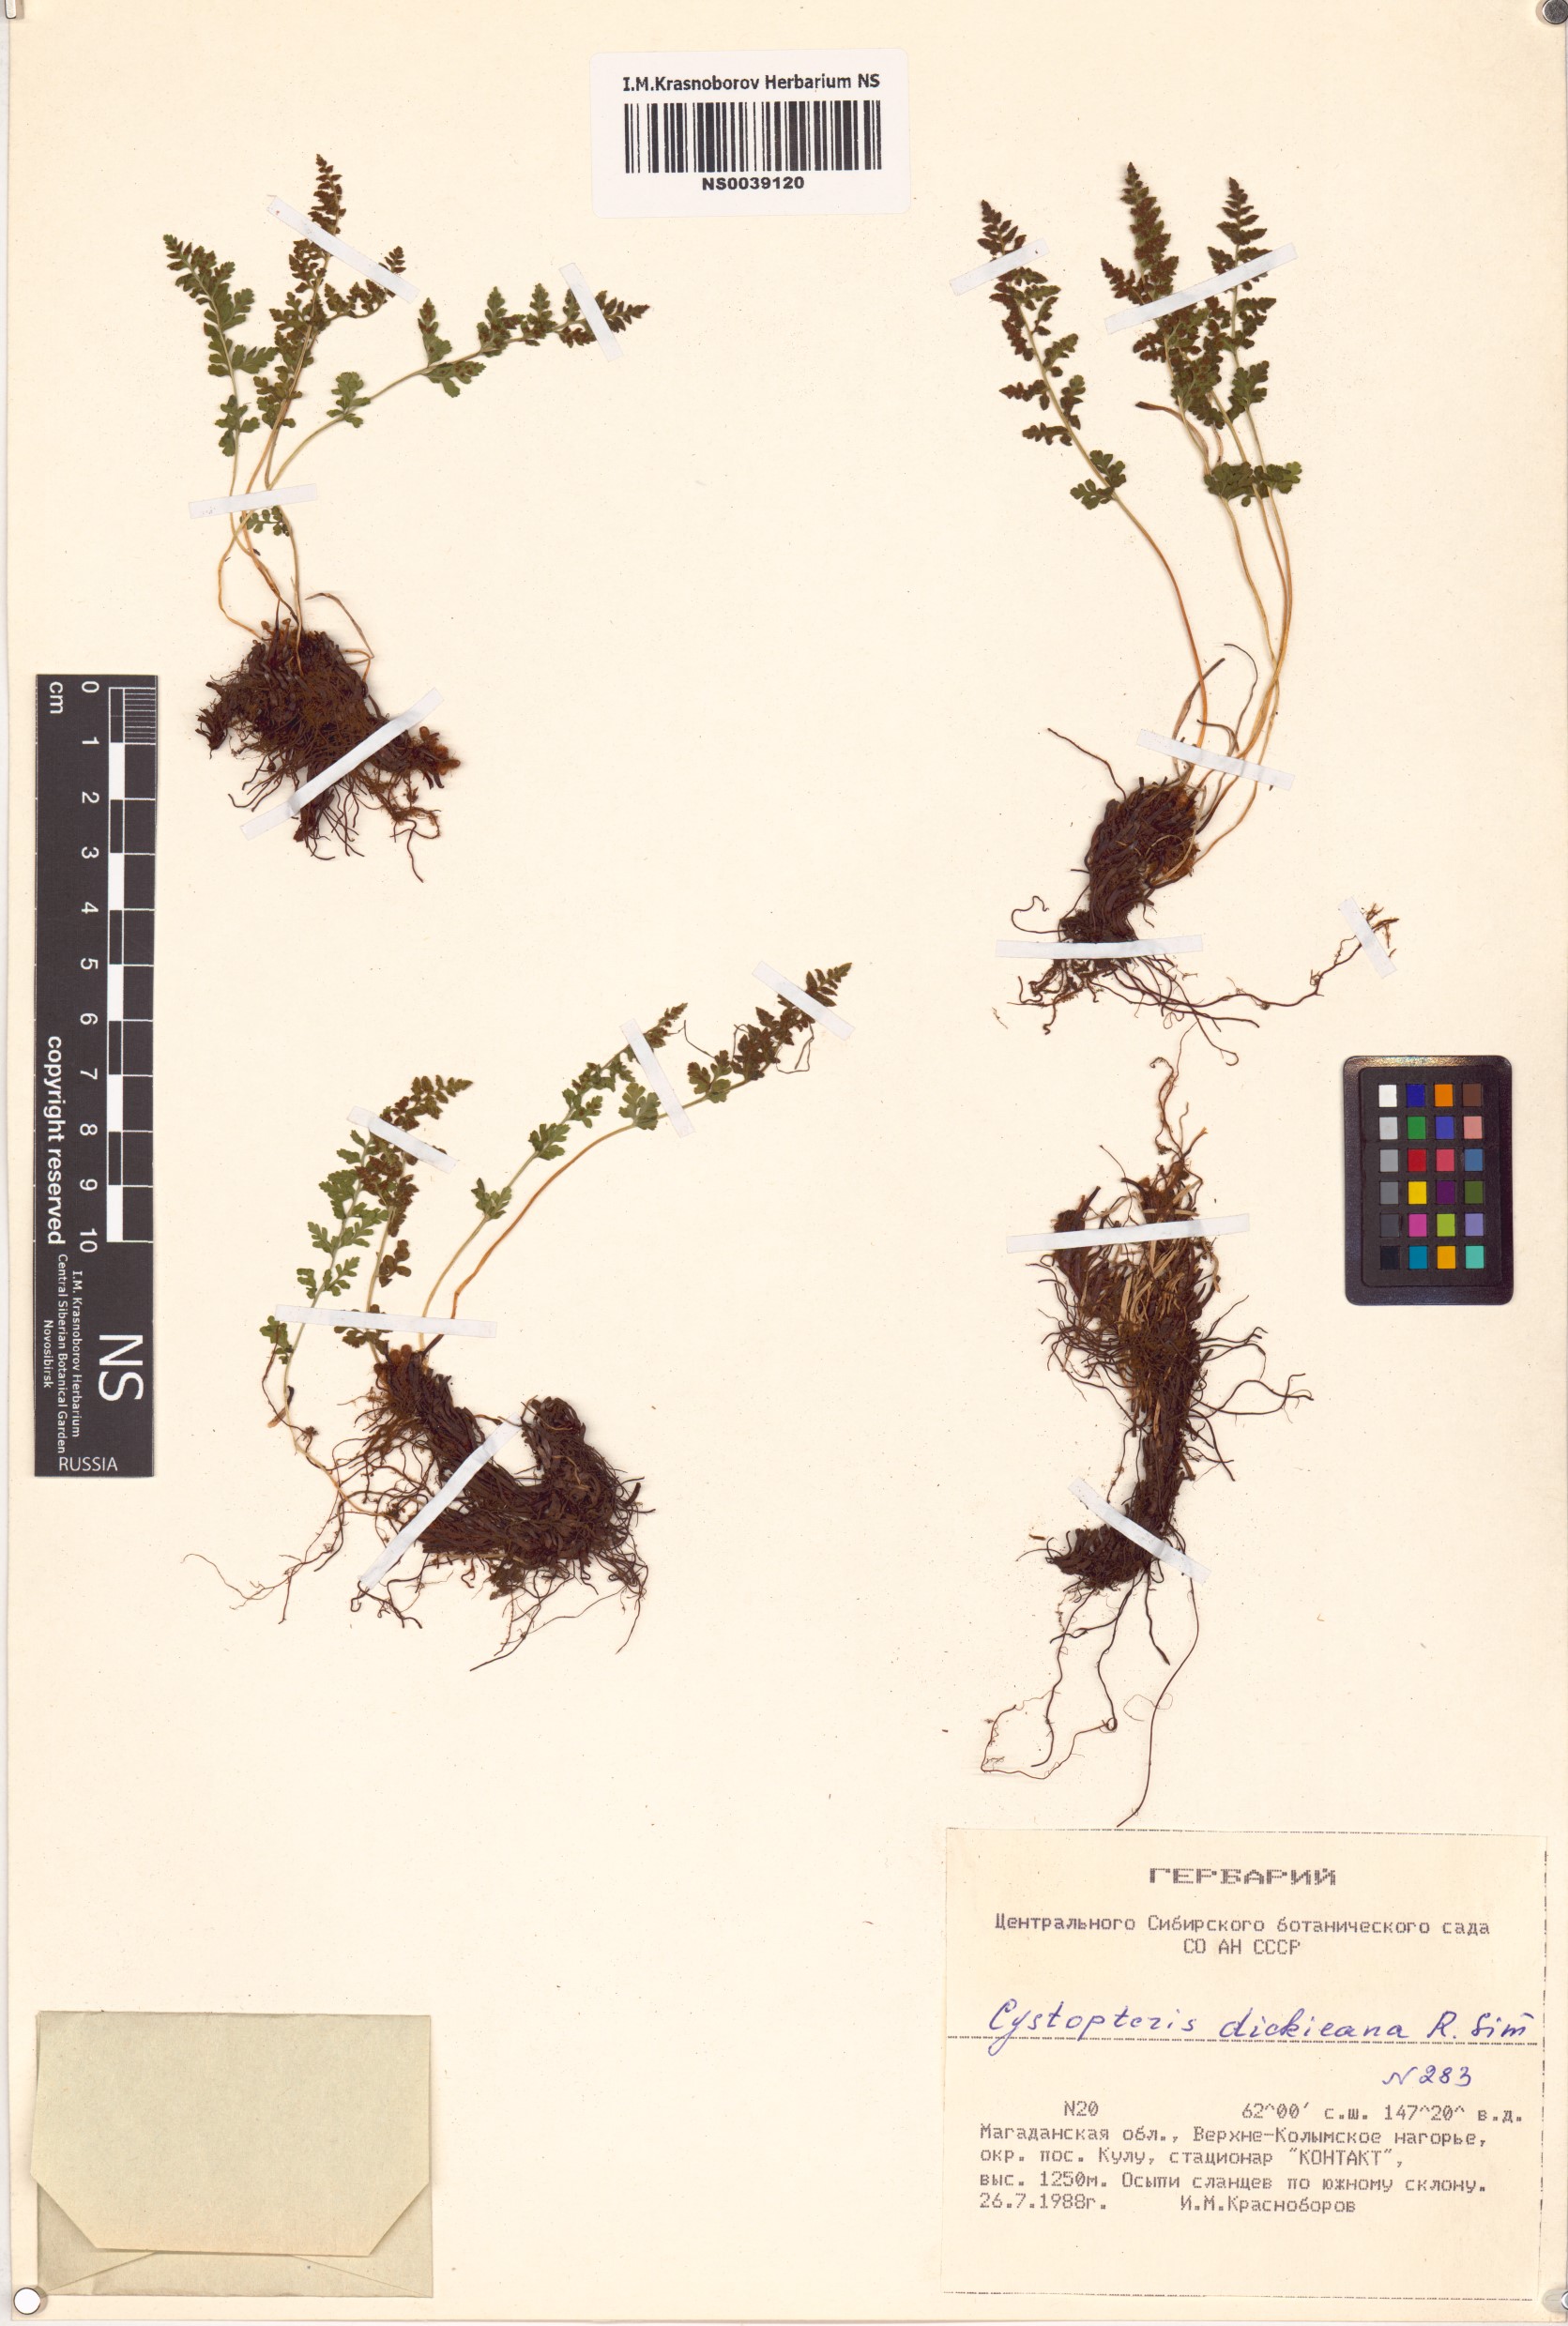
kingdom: Plantae
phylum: Tracheophyta
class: Polypodiopsida
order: Polypodiales
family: Cystopteridaceae
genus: Cystopteris
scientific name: Cystopteris dickieana
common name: Dickie's bladder-fern
